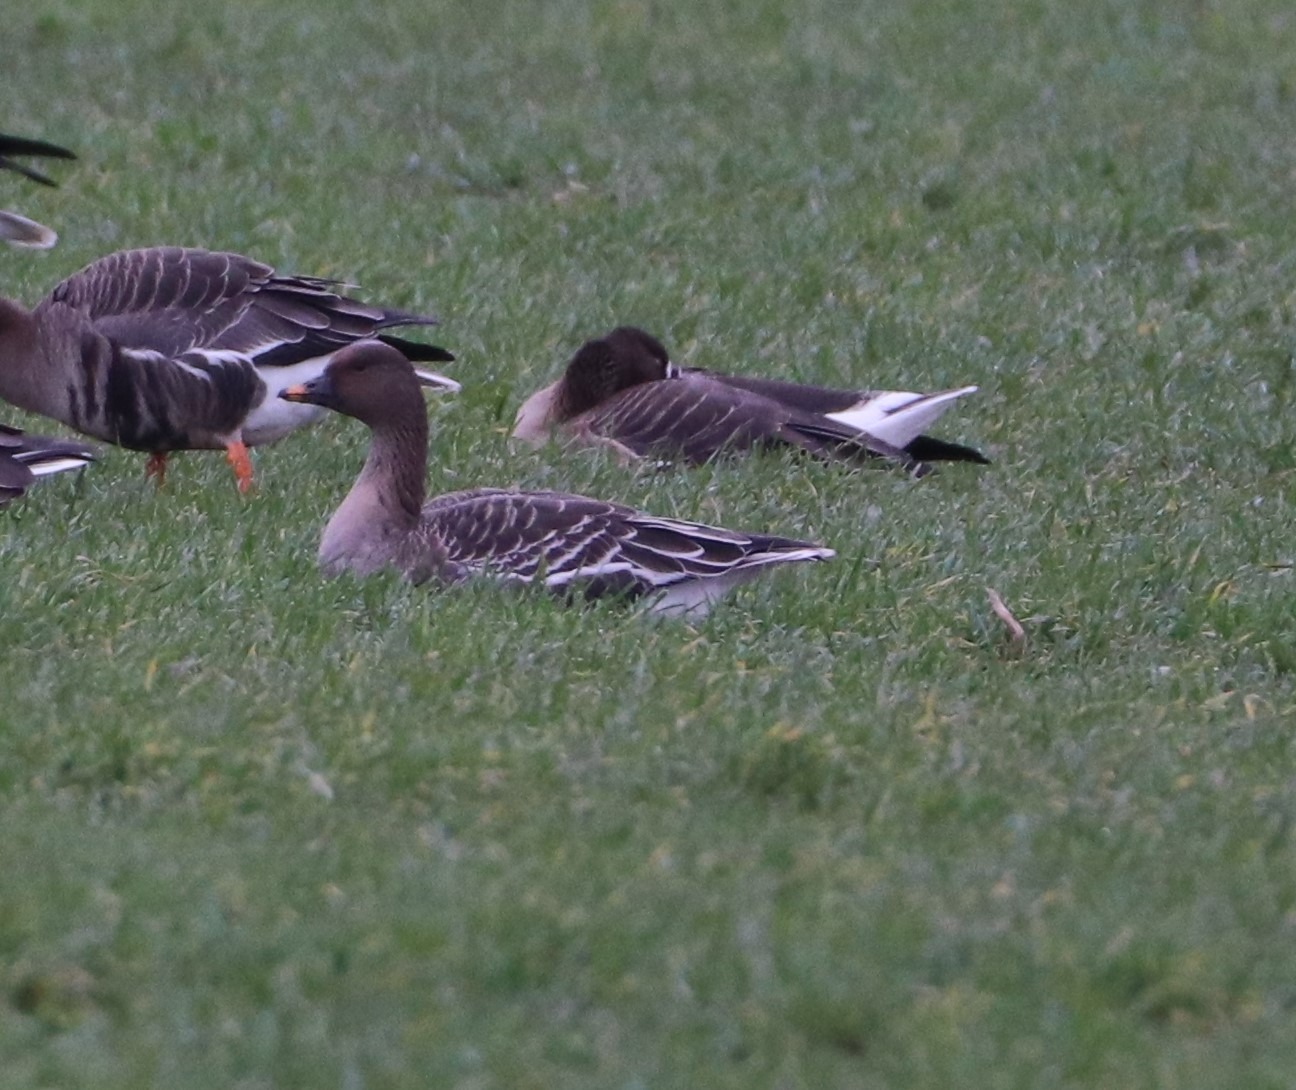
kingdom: Animalia
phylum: Chordata
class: Aves
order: Anseriformes
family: Anatidae
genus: Anser
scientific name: Anser serrirostris
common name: Tundrasædgås
